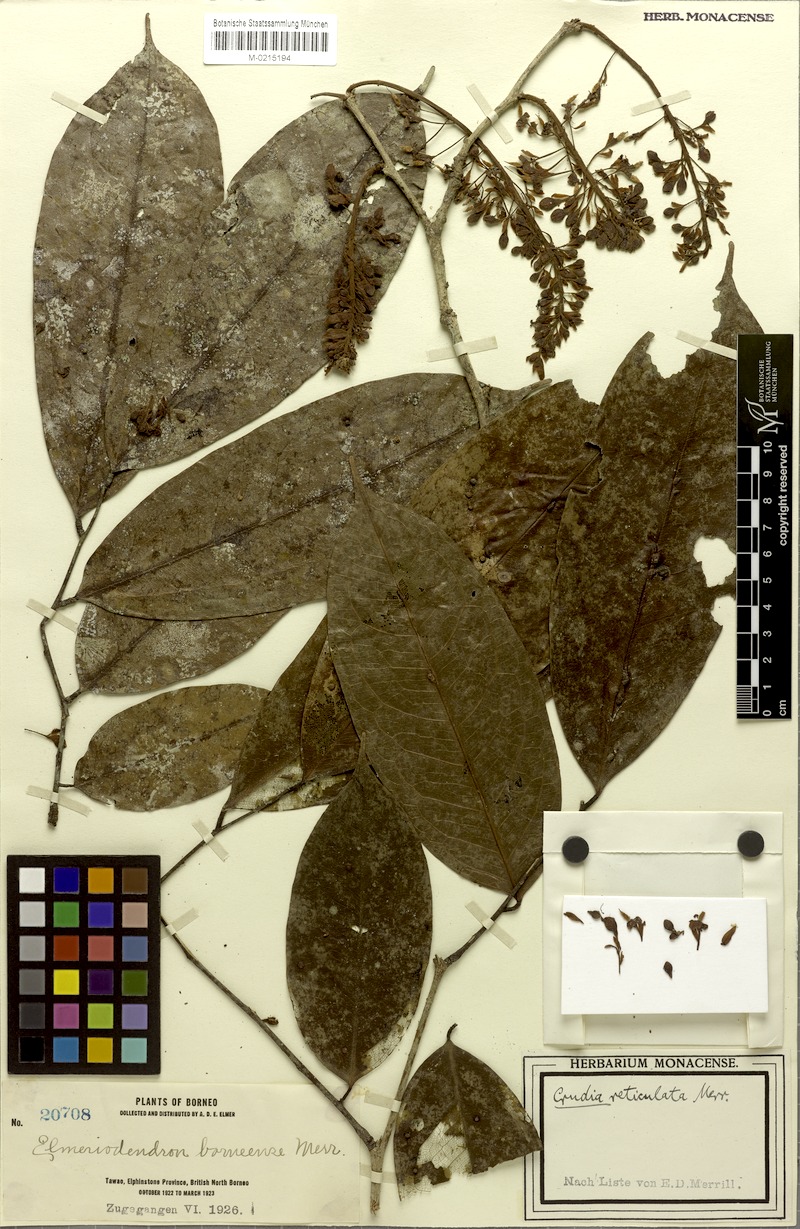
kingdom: Plantae
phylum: Tracheophyta
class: Magnoliopsida
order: Fabales
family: Fabaceae
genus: Crudia
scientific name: Crudia ornata
